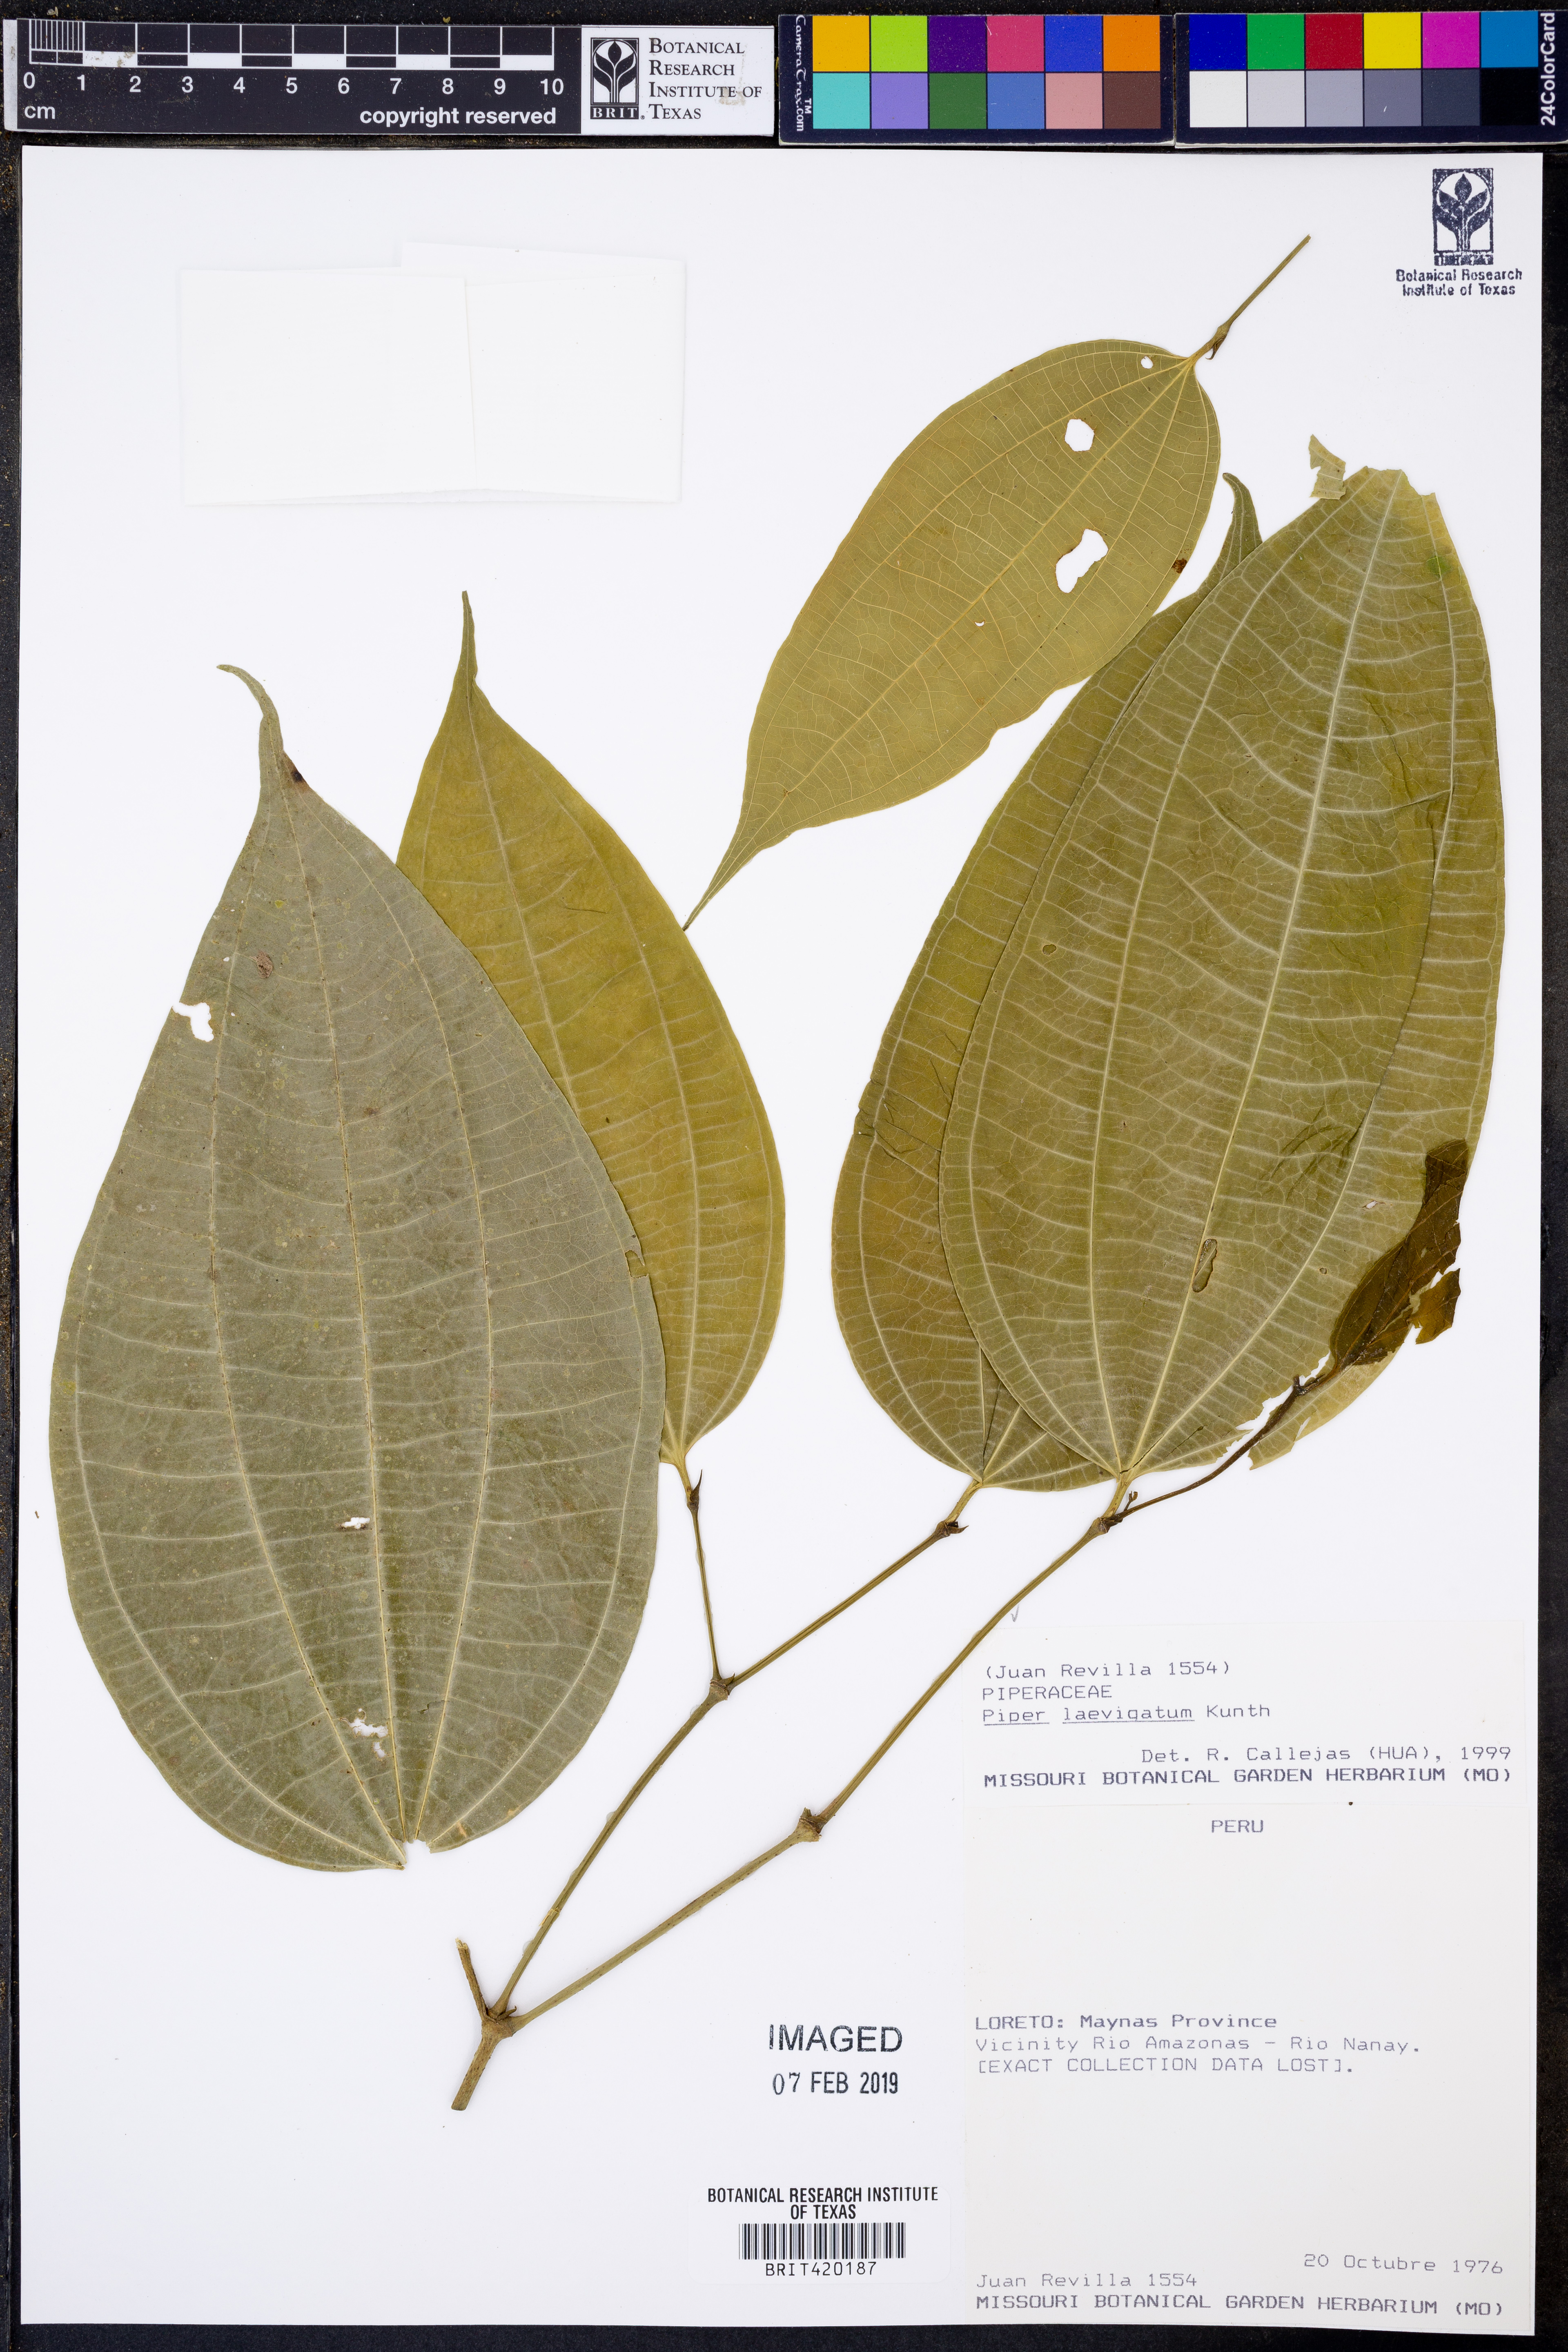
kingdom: Plantae
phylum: Tracheophyta
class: Magnoliopsida
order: Piperales
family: Piperaceae
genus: Piper
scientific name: Piper laevigatum
